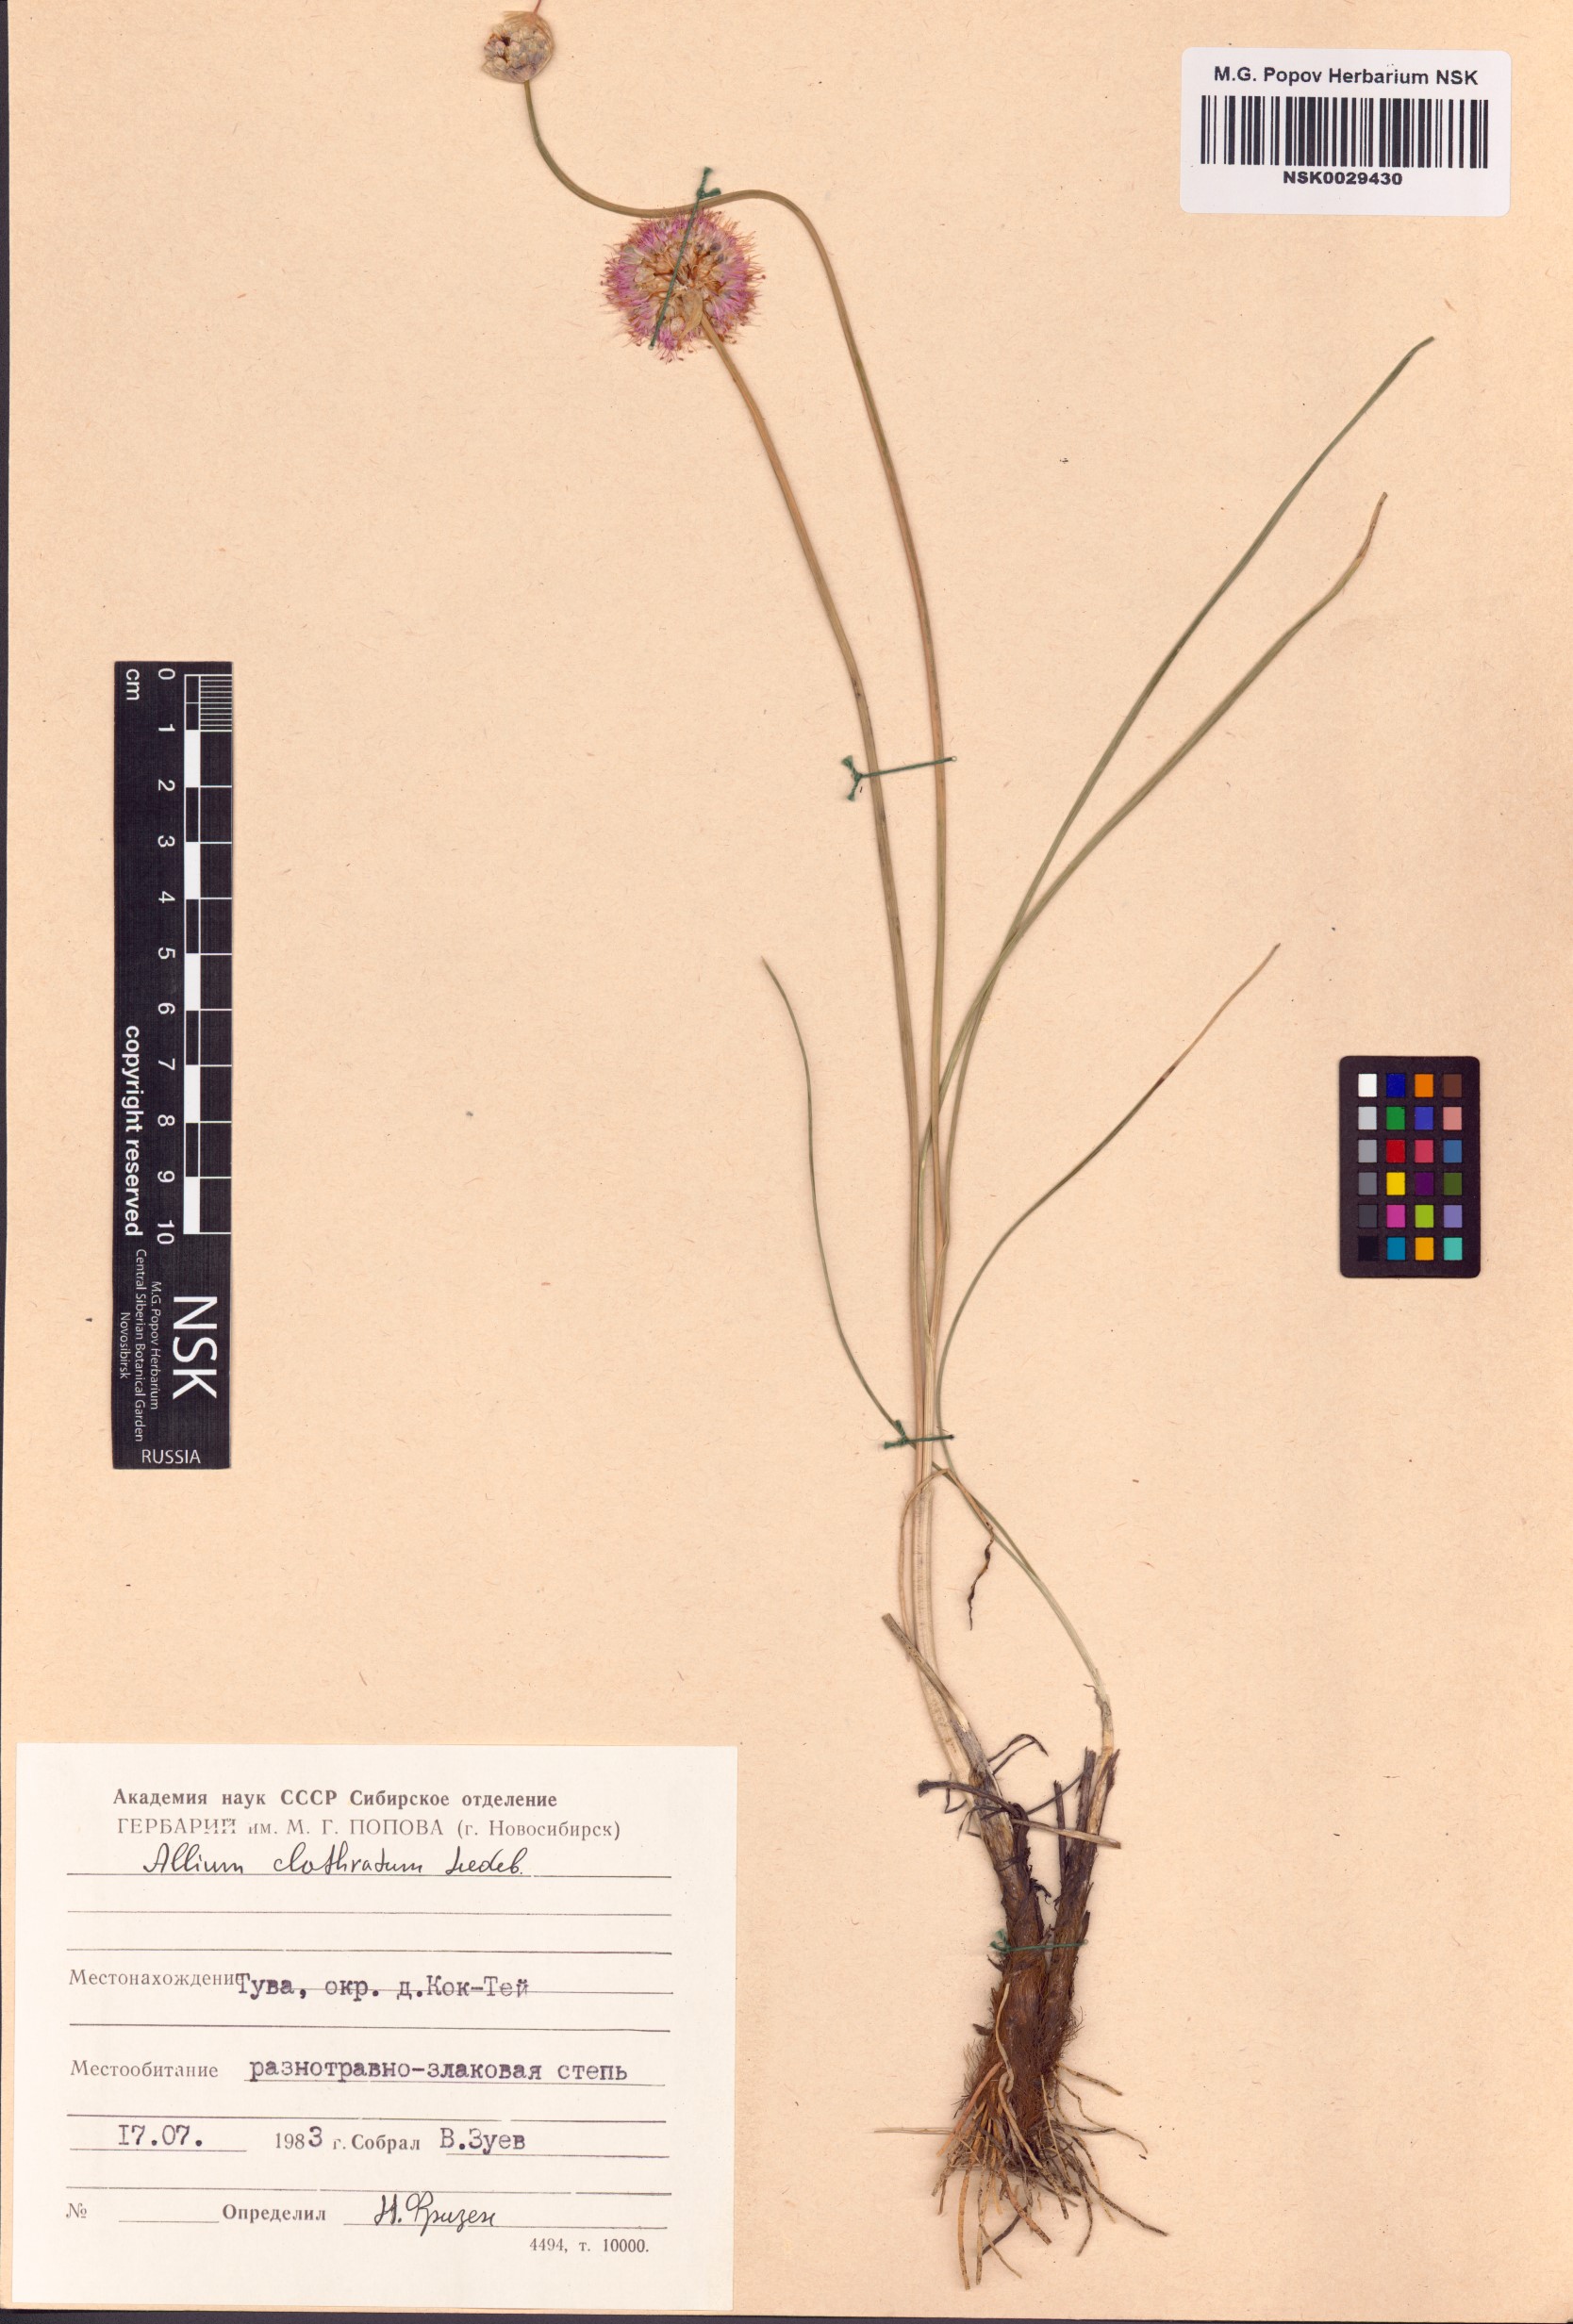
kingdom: Plantae
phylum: Tracheophyta
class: Liliopsida
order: Asparagales
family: Amaryllidaceae
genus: Allium
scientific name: Allium clathratum
